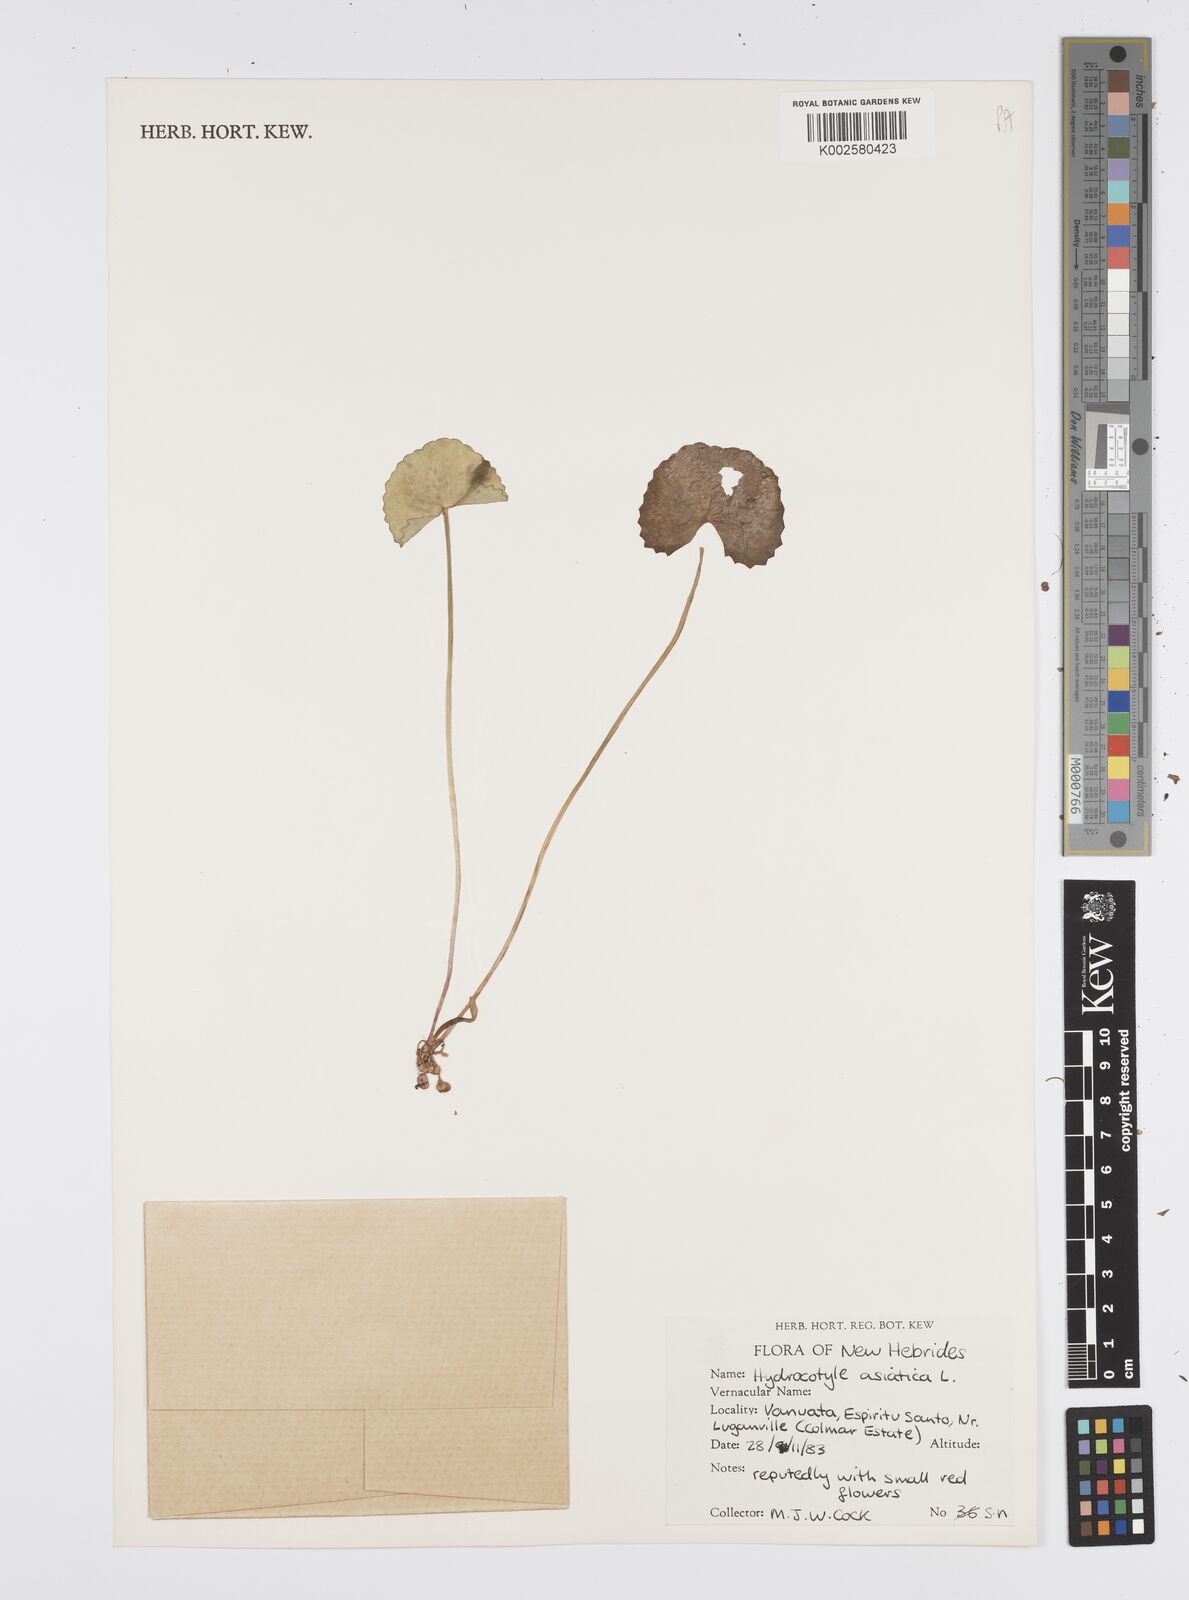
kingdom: Plantae
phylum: Tracheophyta
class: Magnoliopsida
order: Apiales
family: Apiaceae
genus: Centella
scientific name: Centella asiatica
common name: Spadeleaf
